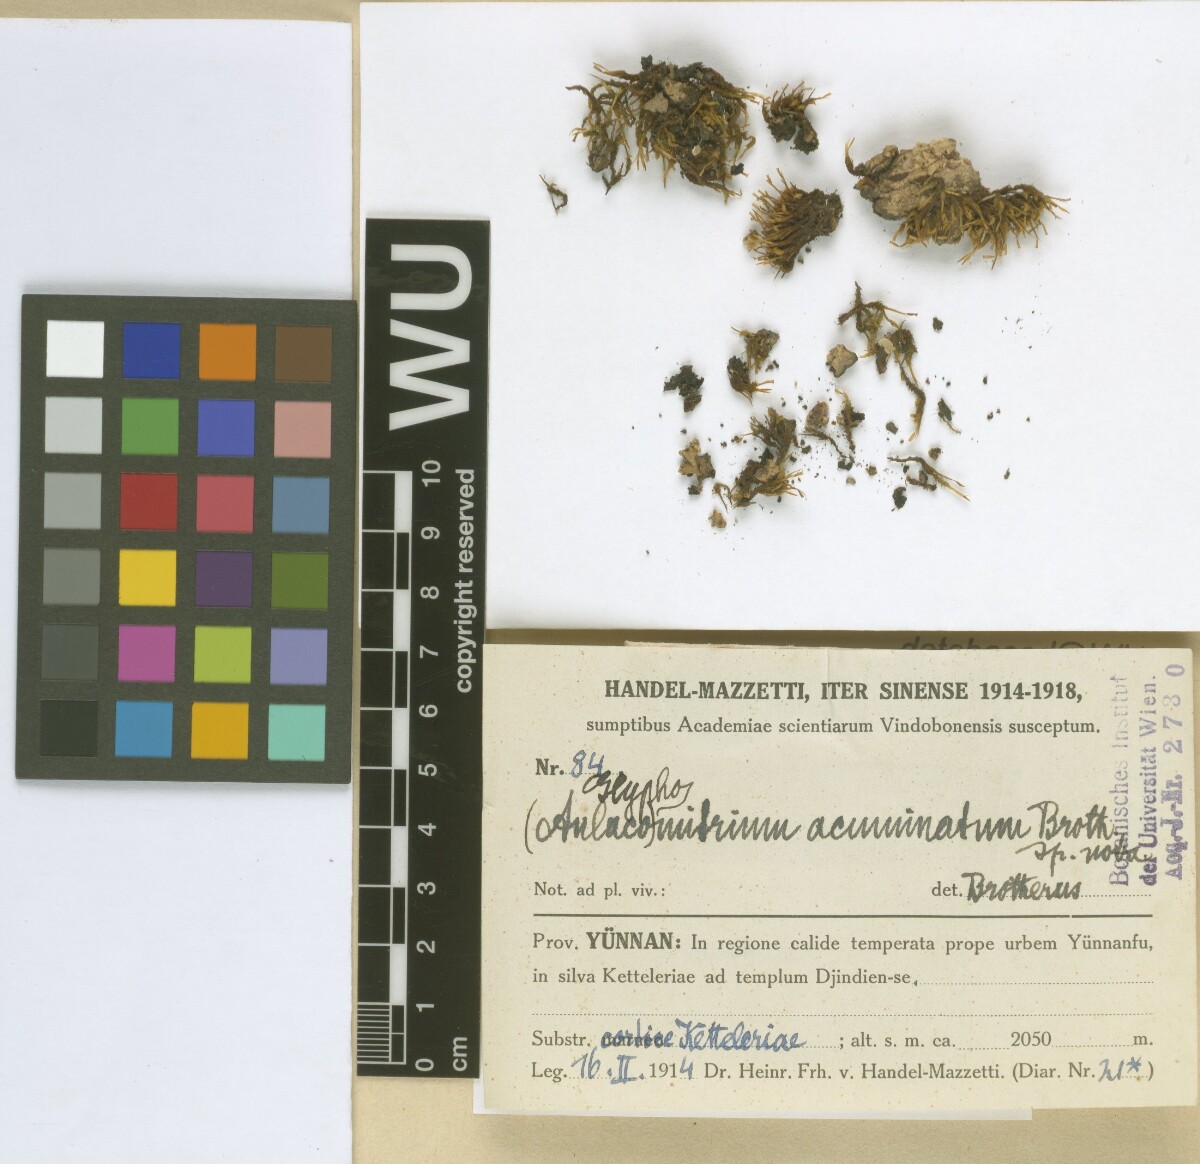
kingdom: Plantae
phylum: Bryophyta
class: Bryopsida
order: Dicranales
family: Rhabdoweisiaceae
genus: Glyphomitrium
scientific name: Glyphomitrium acuminatum
